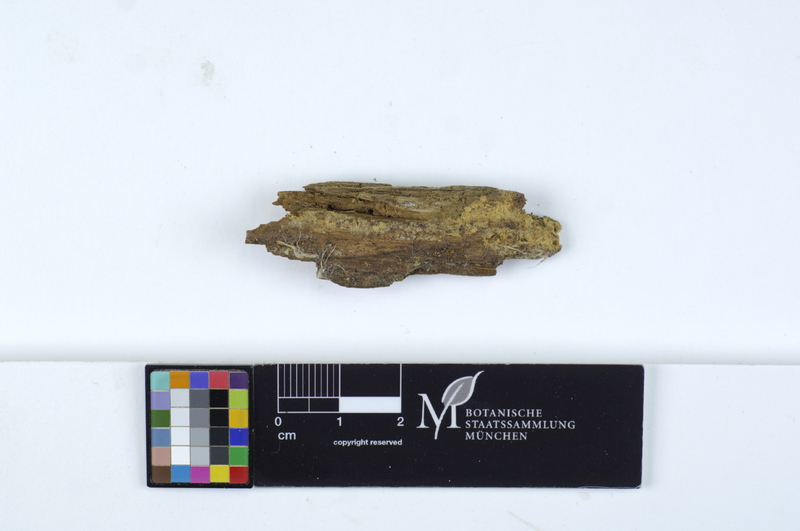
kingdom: Fungi
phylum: Basidiomycota
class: Agaricomycetes
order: Cantharellales
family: Botryobasidiaceae
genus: Botryobasidium
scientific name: Botryobasidium candicans
